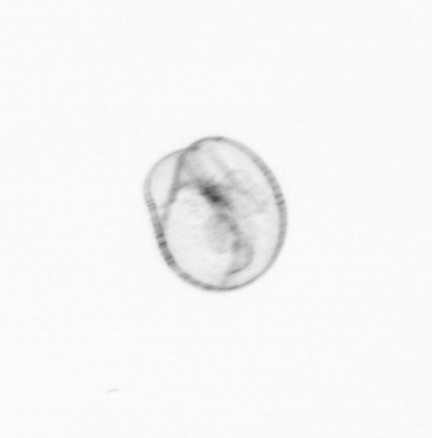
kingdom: Chromista
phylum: Myzozoa
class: Dinophyceae
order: Noctilucales
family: Noctilucaceae
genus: Noctiluca
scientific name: Noctiluca scintillans
